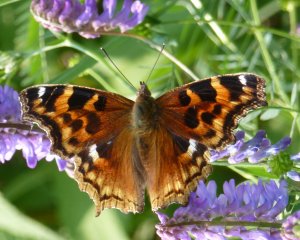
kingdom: Animalia
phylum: Arthropoda
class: Insecta
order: Lepidoptera
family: Nymphalidae
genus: Polygonia
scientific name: Polygonia vaualbum
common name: Compton Tortoiseshell
